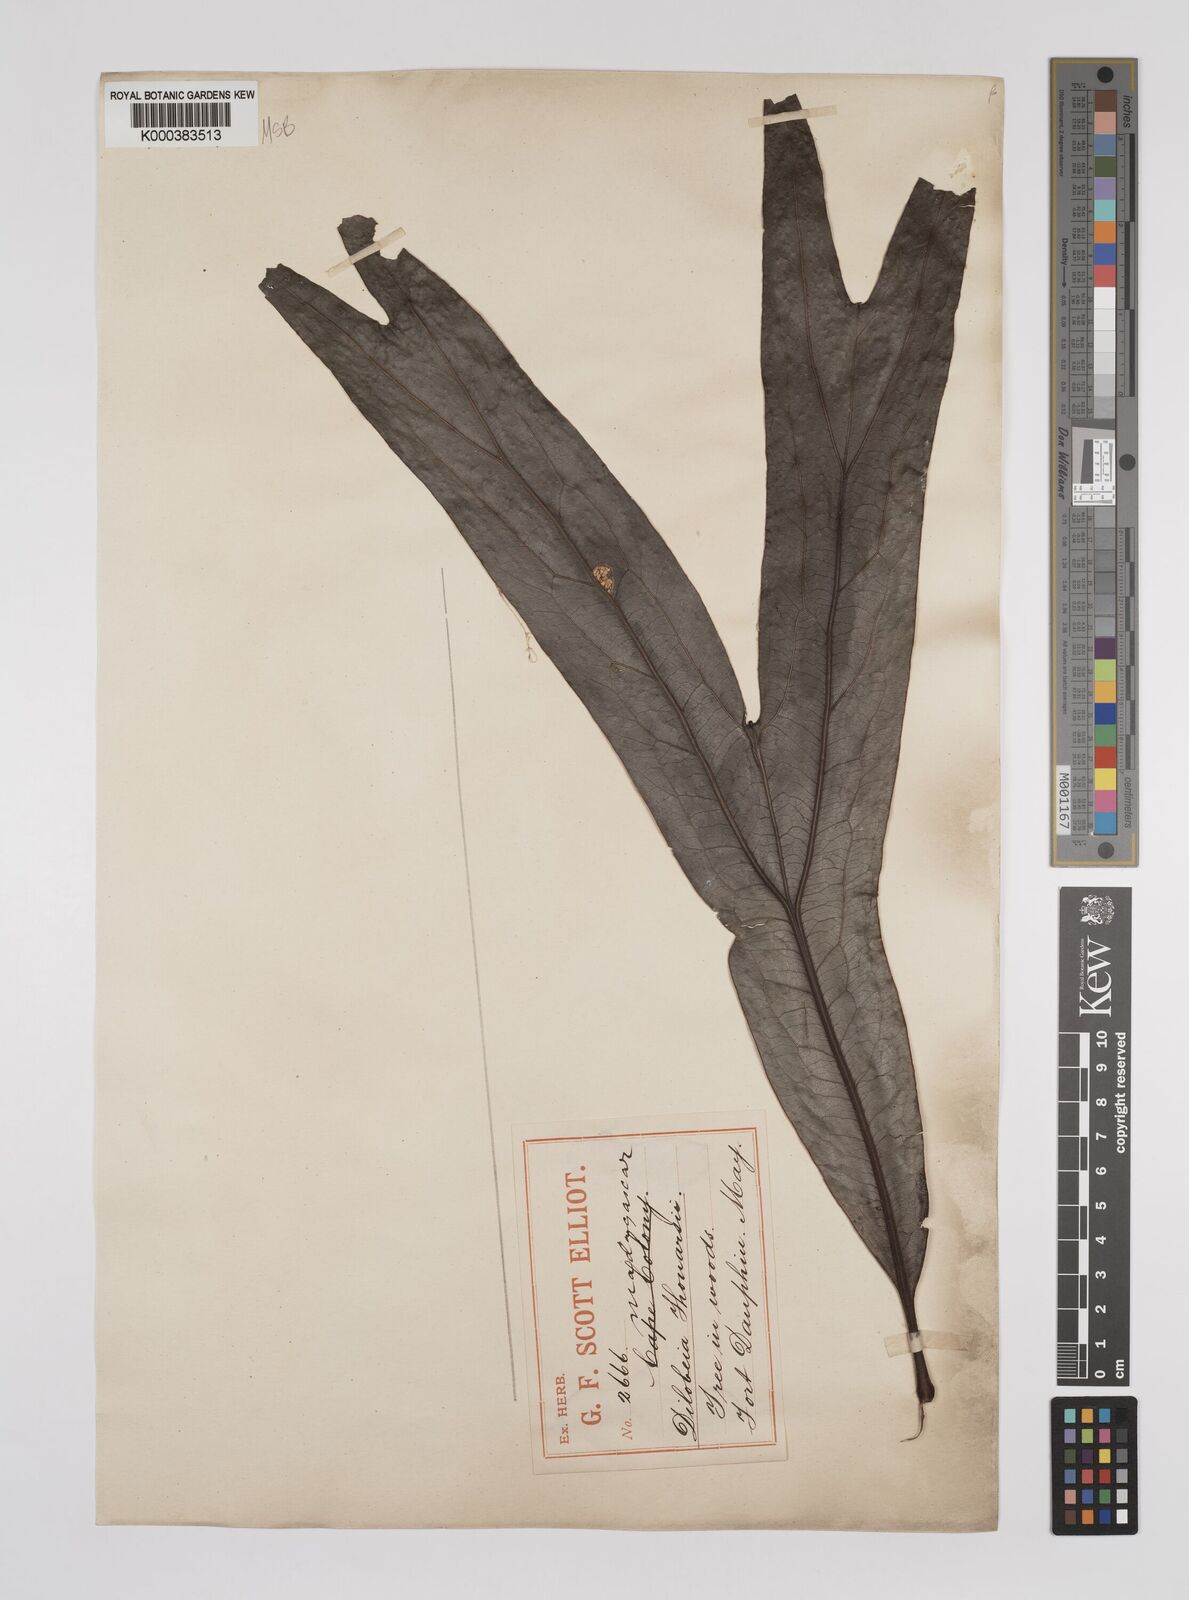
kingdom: Plantae
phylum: Tracheophyta
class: Magnoliopsida
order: Proteales
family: Proteaceae
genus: Dilobeia
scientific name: Dilobeia thouarsii
